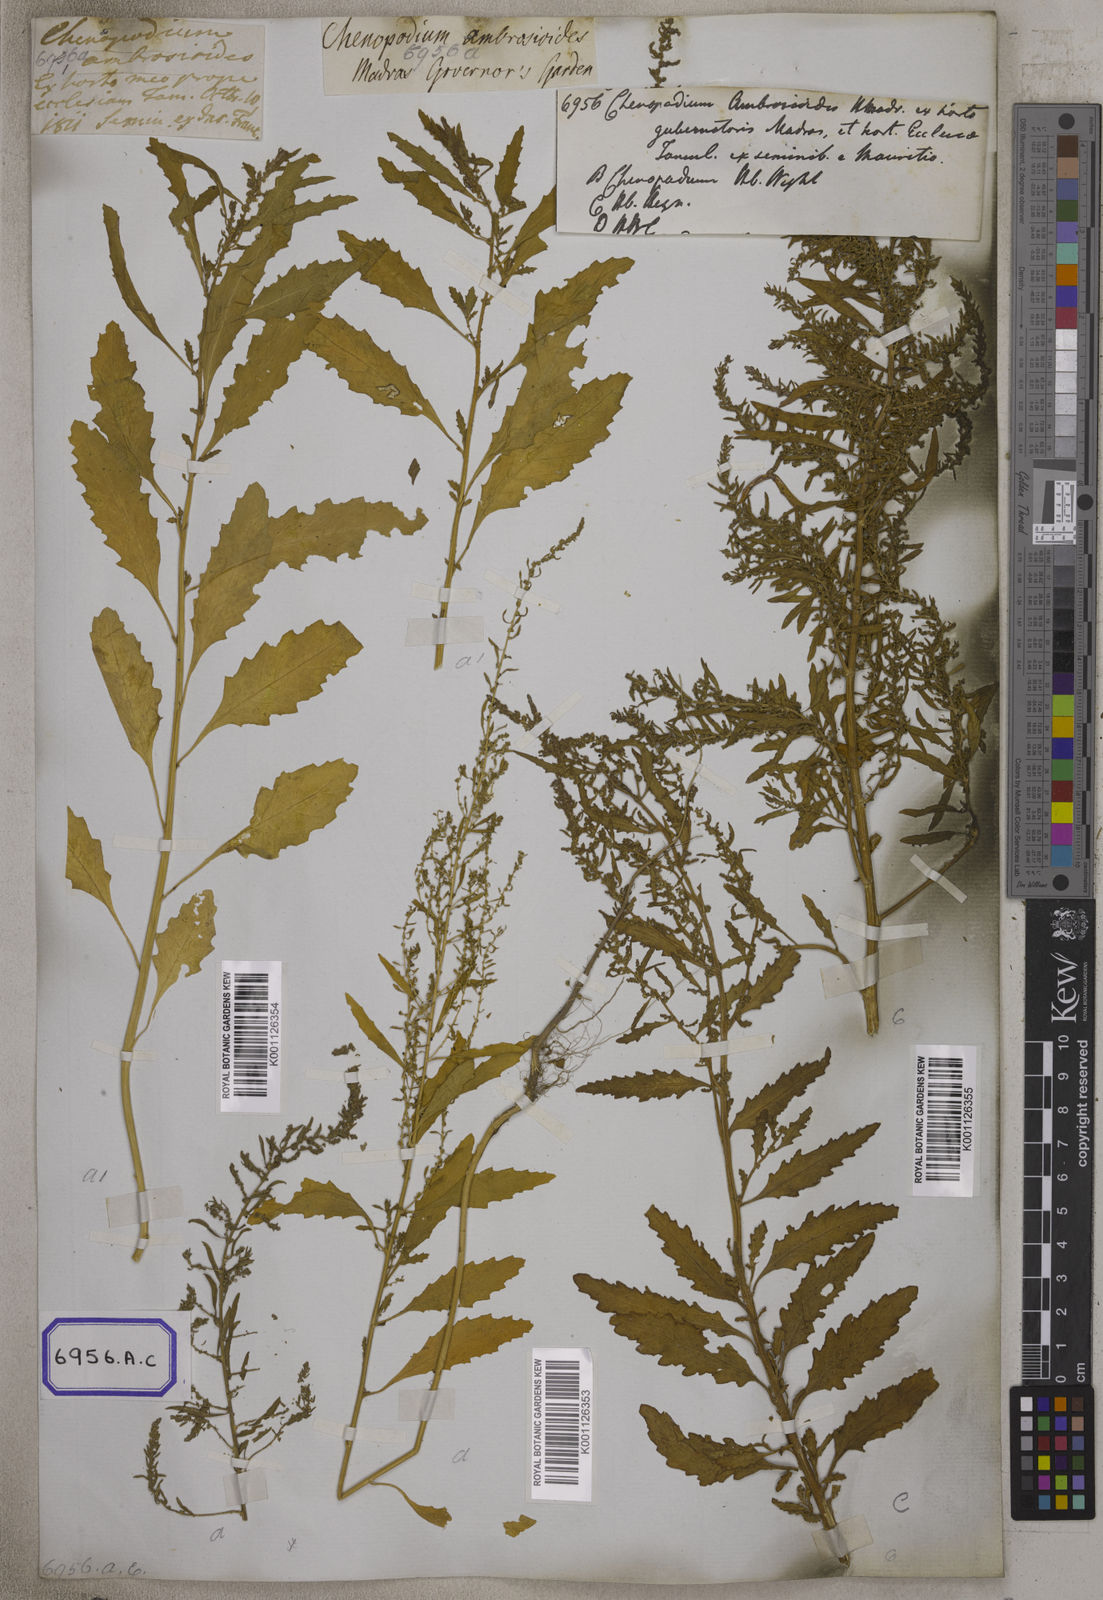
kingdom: Plantae
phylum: Tracheophyta
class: Magnoliopsida
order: Caryophyllales
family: Amaranthaceae
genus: Dysphania
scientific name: Dysphania ambrosioides
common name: Wormseed
